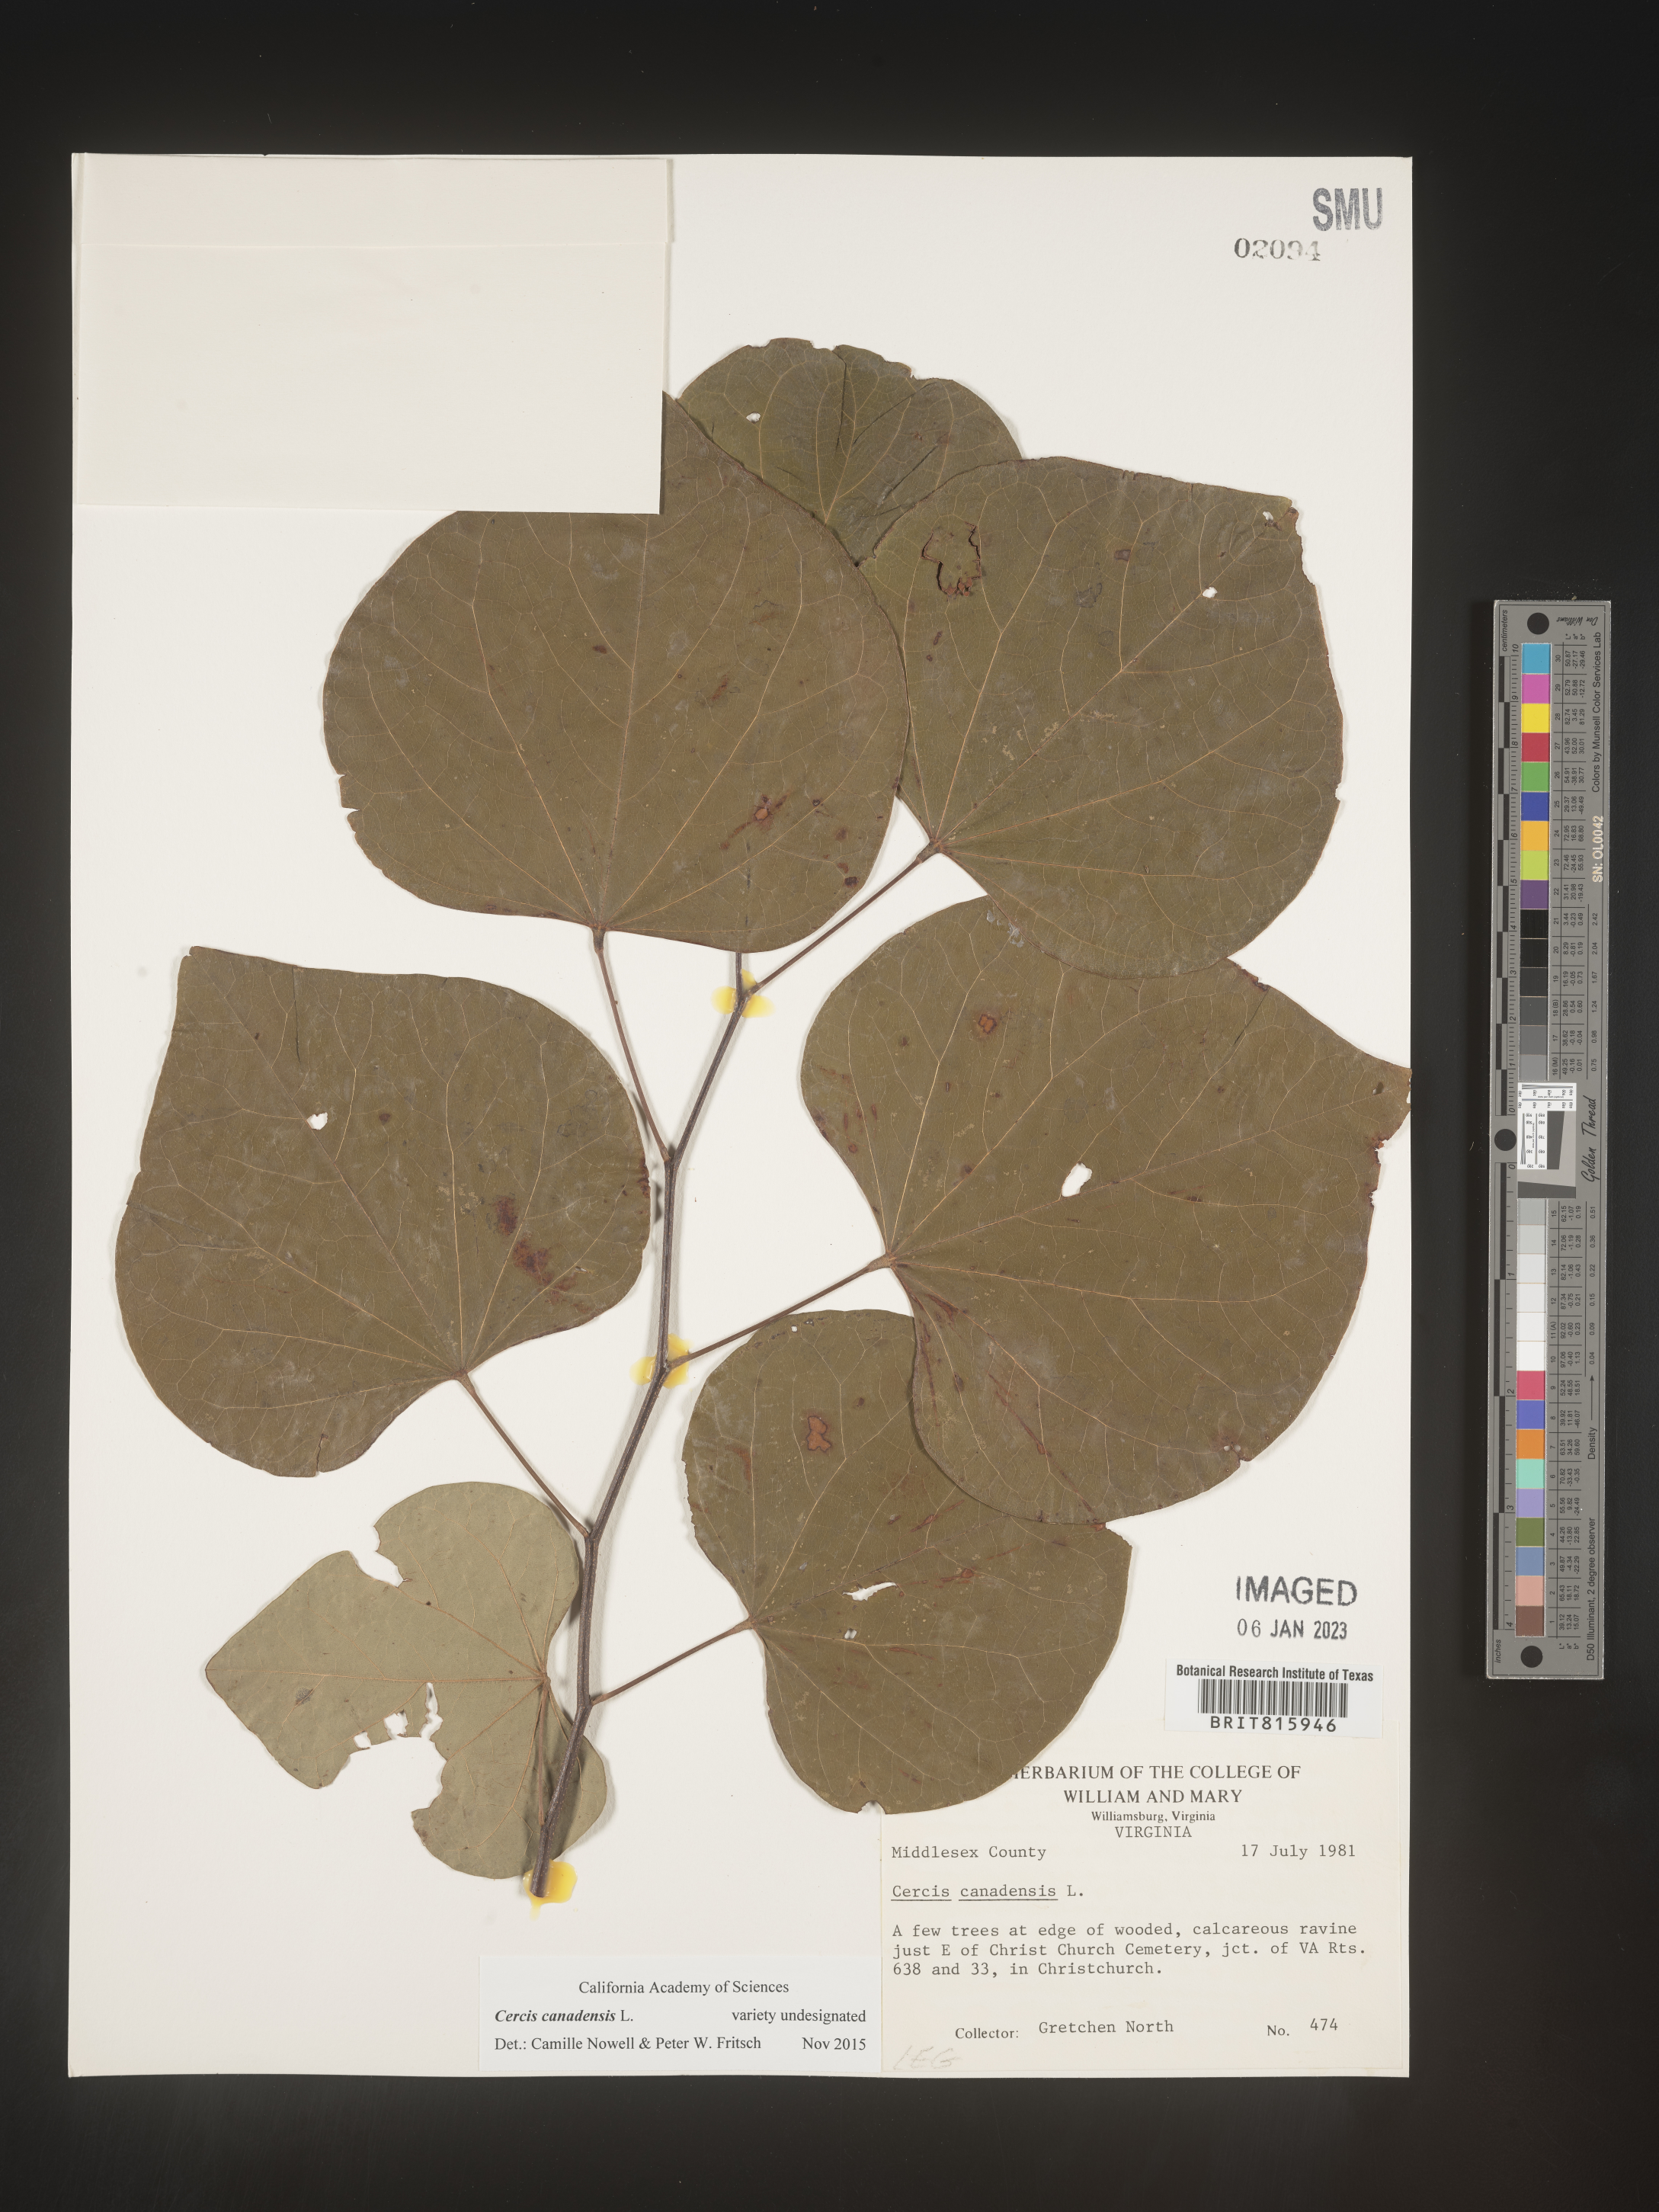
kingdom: Plantae
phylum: Tracheophyta
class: Magnoliopsida
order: Fabales
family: Fabaceae
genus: Cercis
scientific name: Cercis canadensis
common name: Eastern redbud
